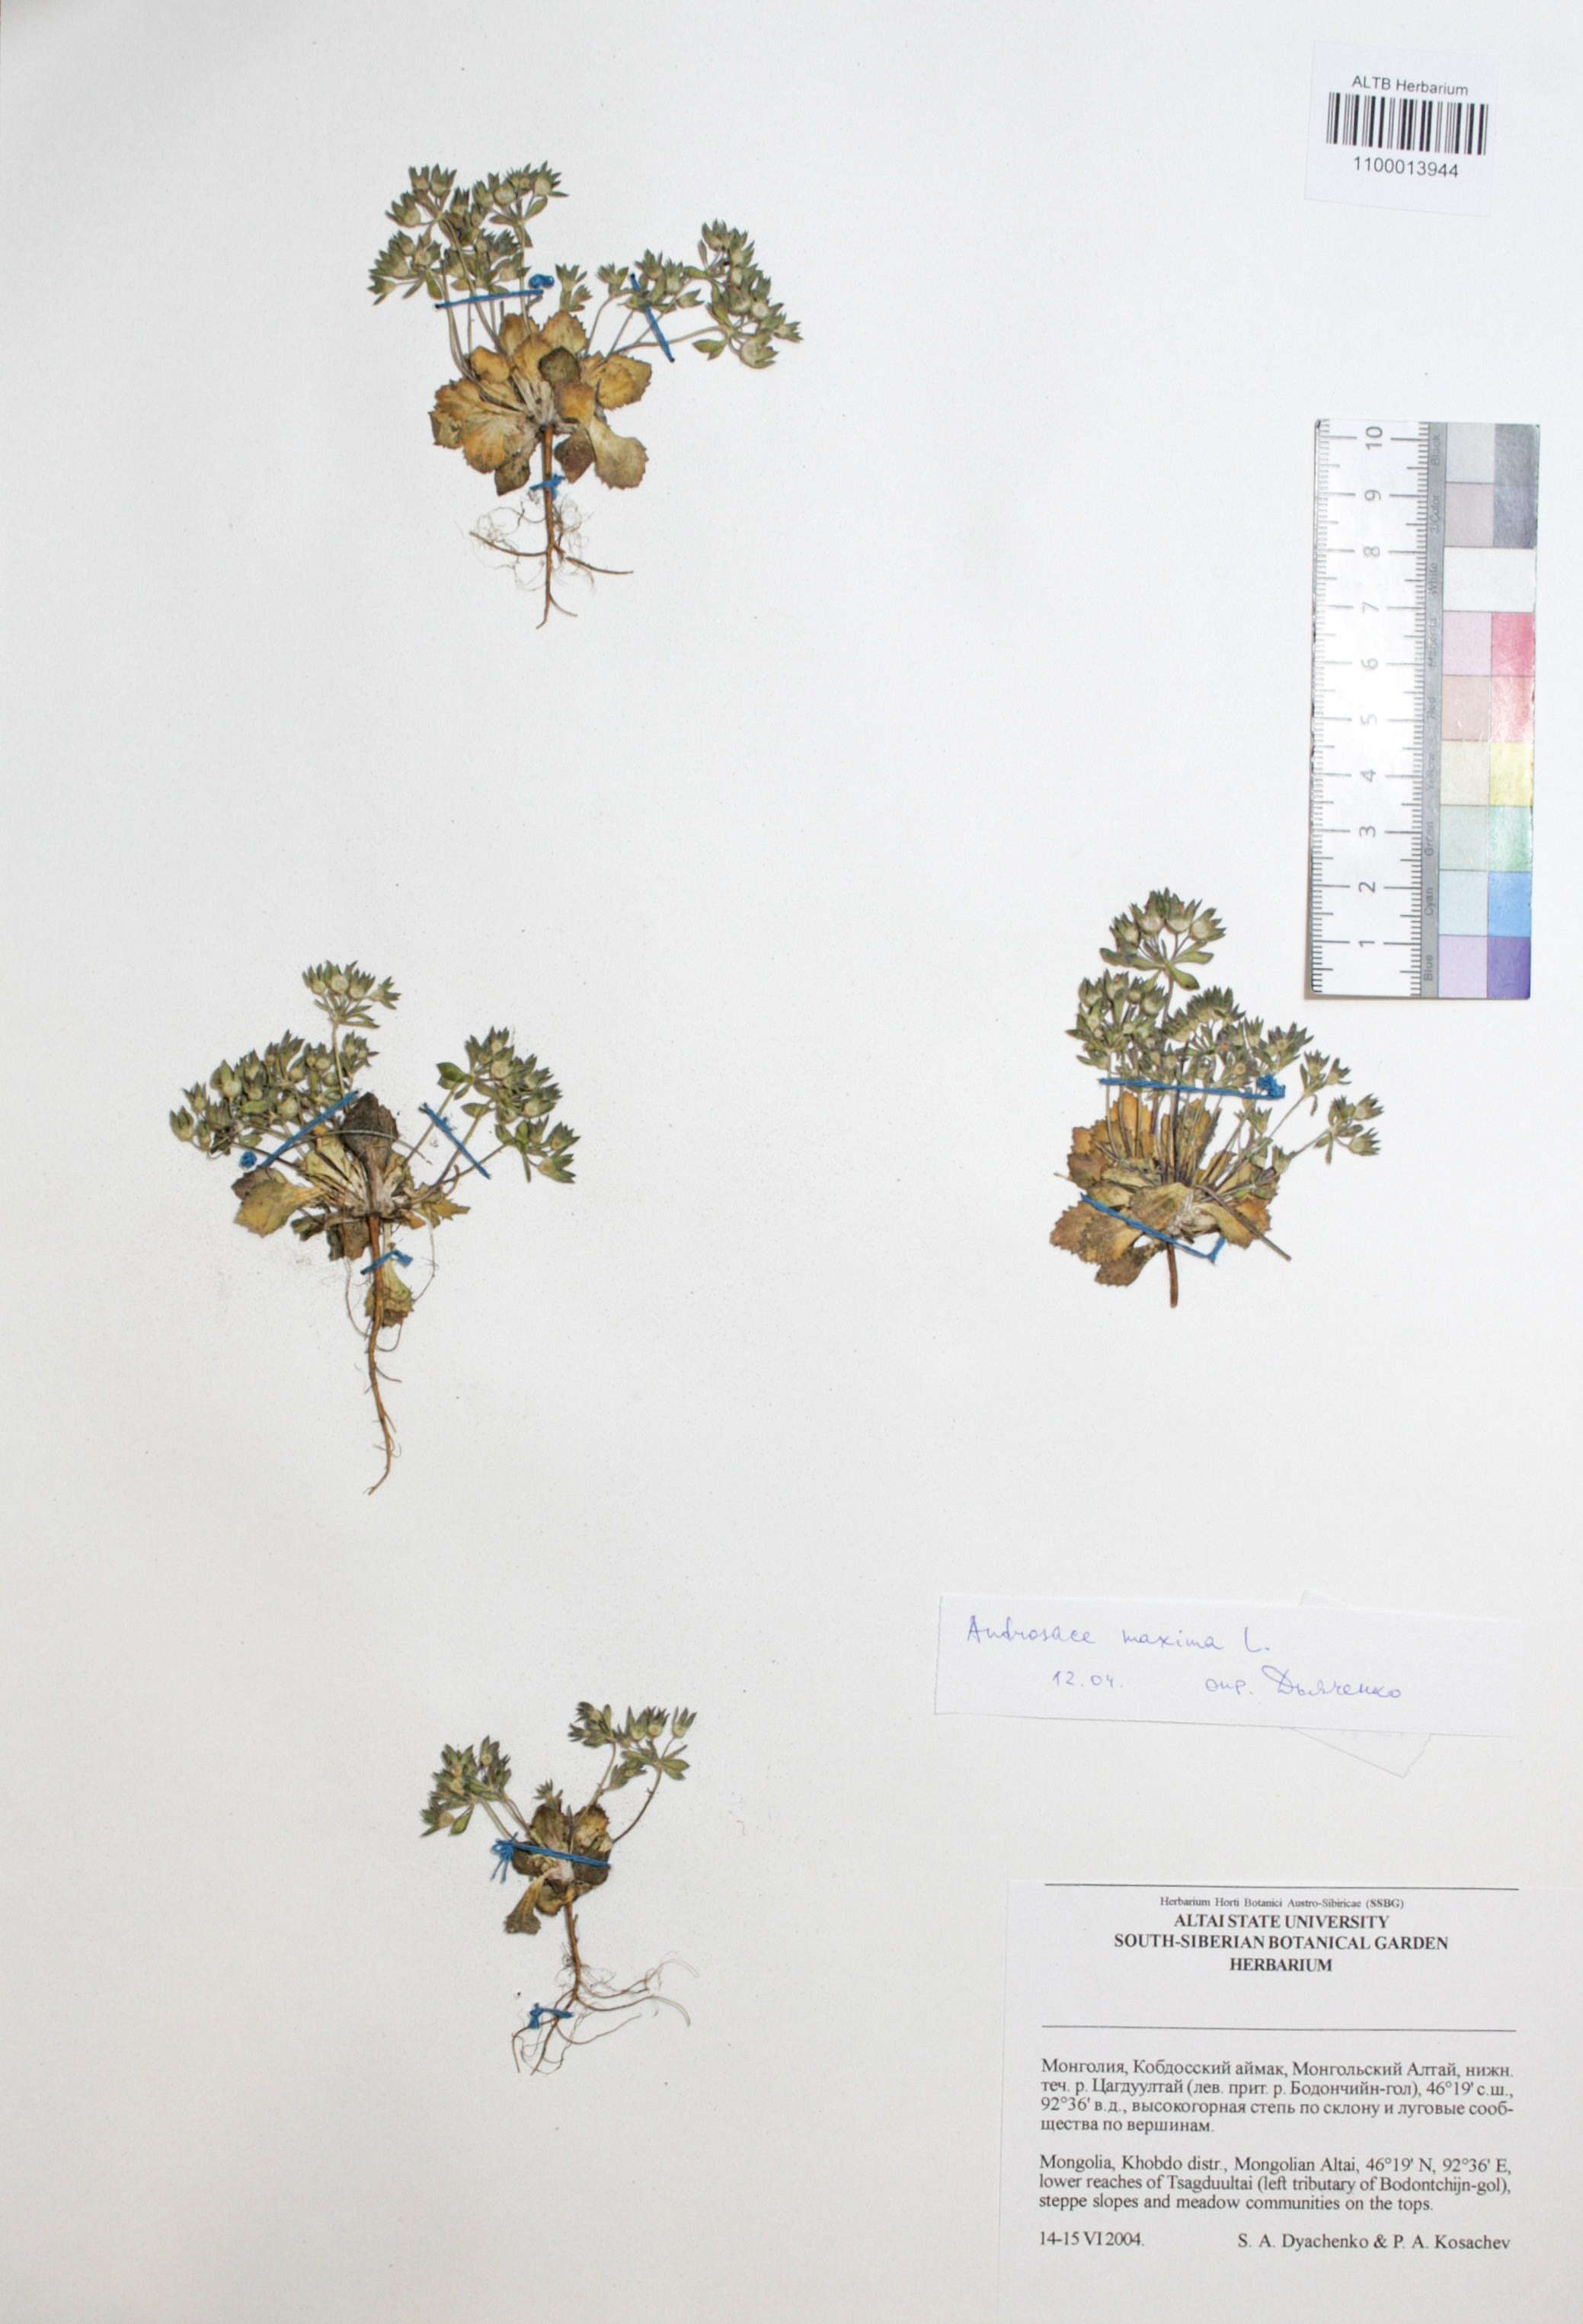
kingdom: Plantae
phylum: Tracheophyta
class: Magnoliopsida
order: Ericales
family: Primulaceae
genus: Androsace
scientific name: Androsace maxima
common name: Annual androsace
